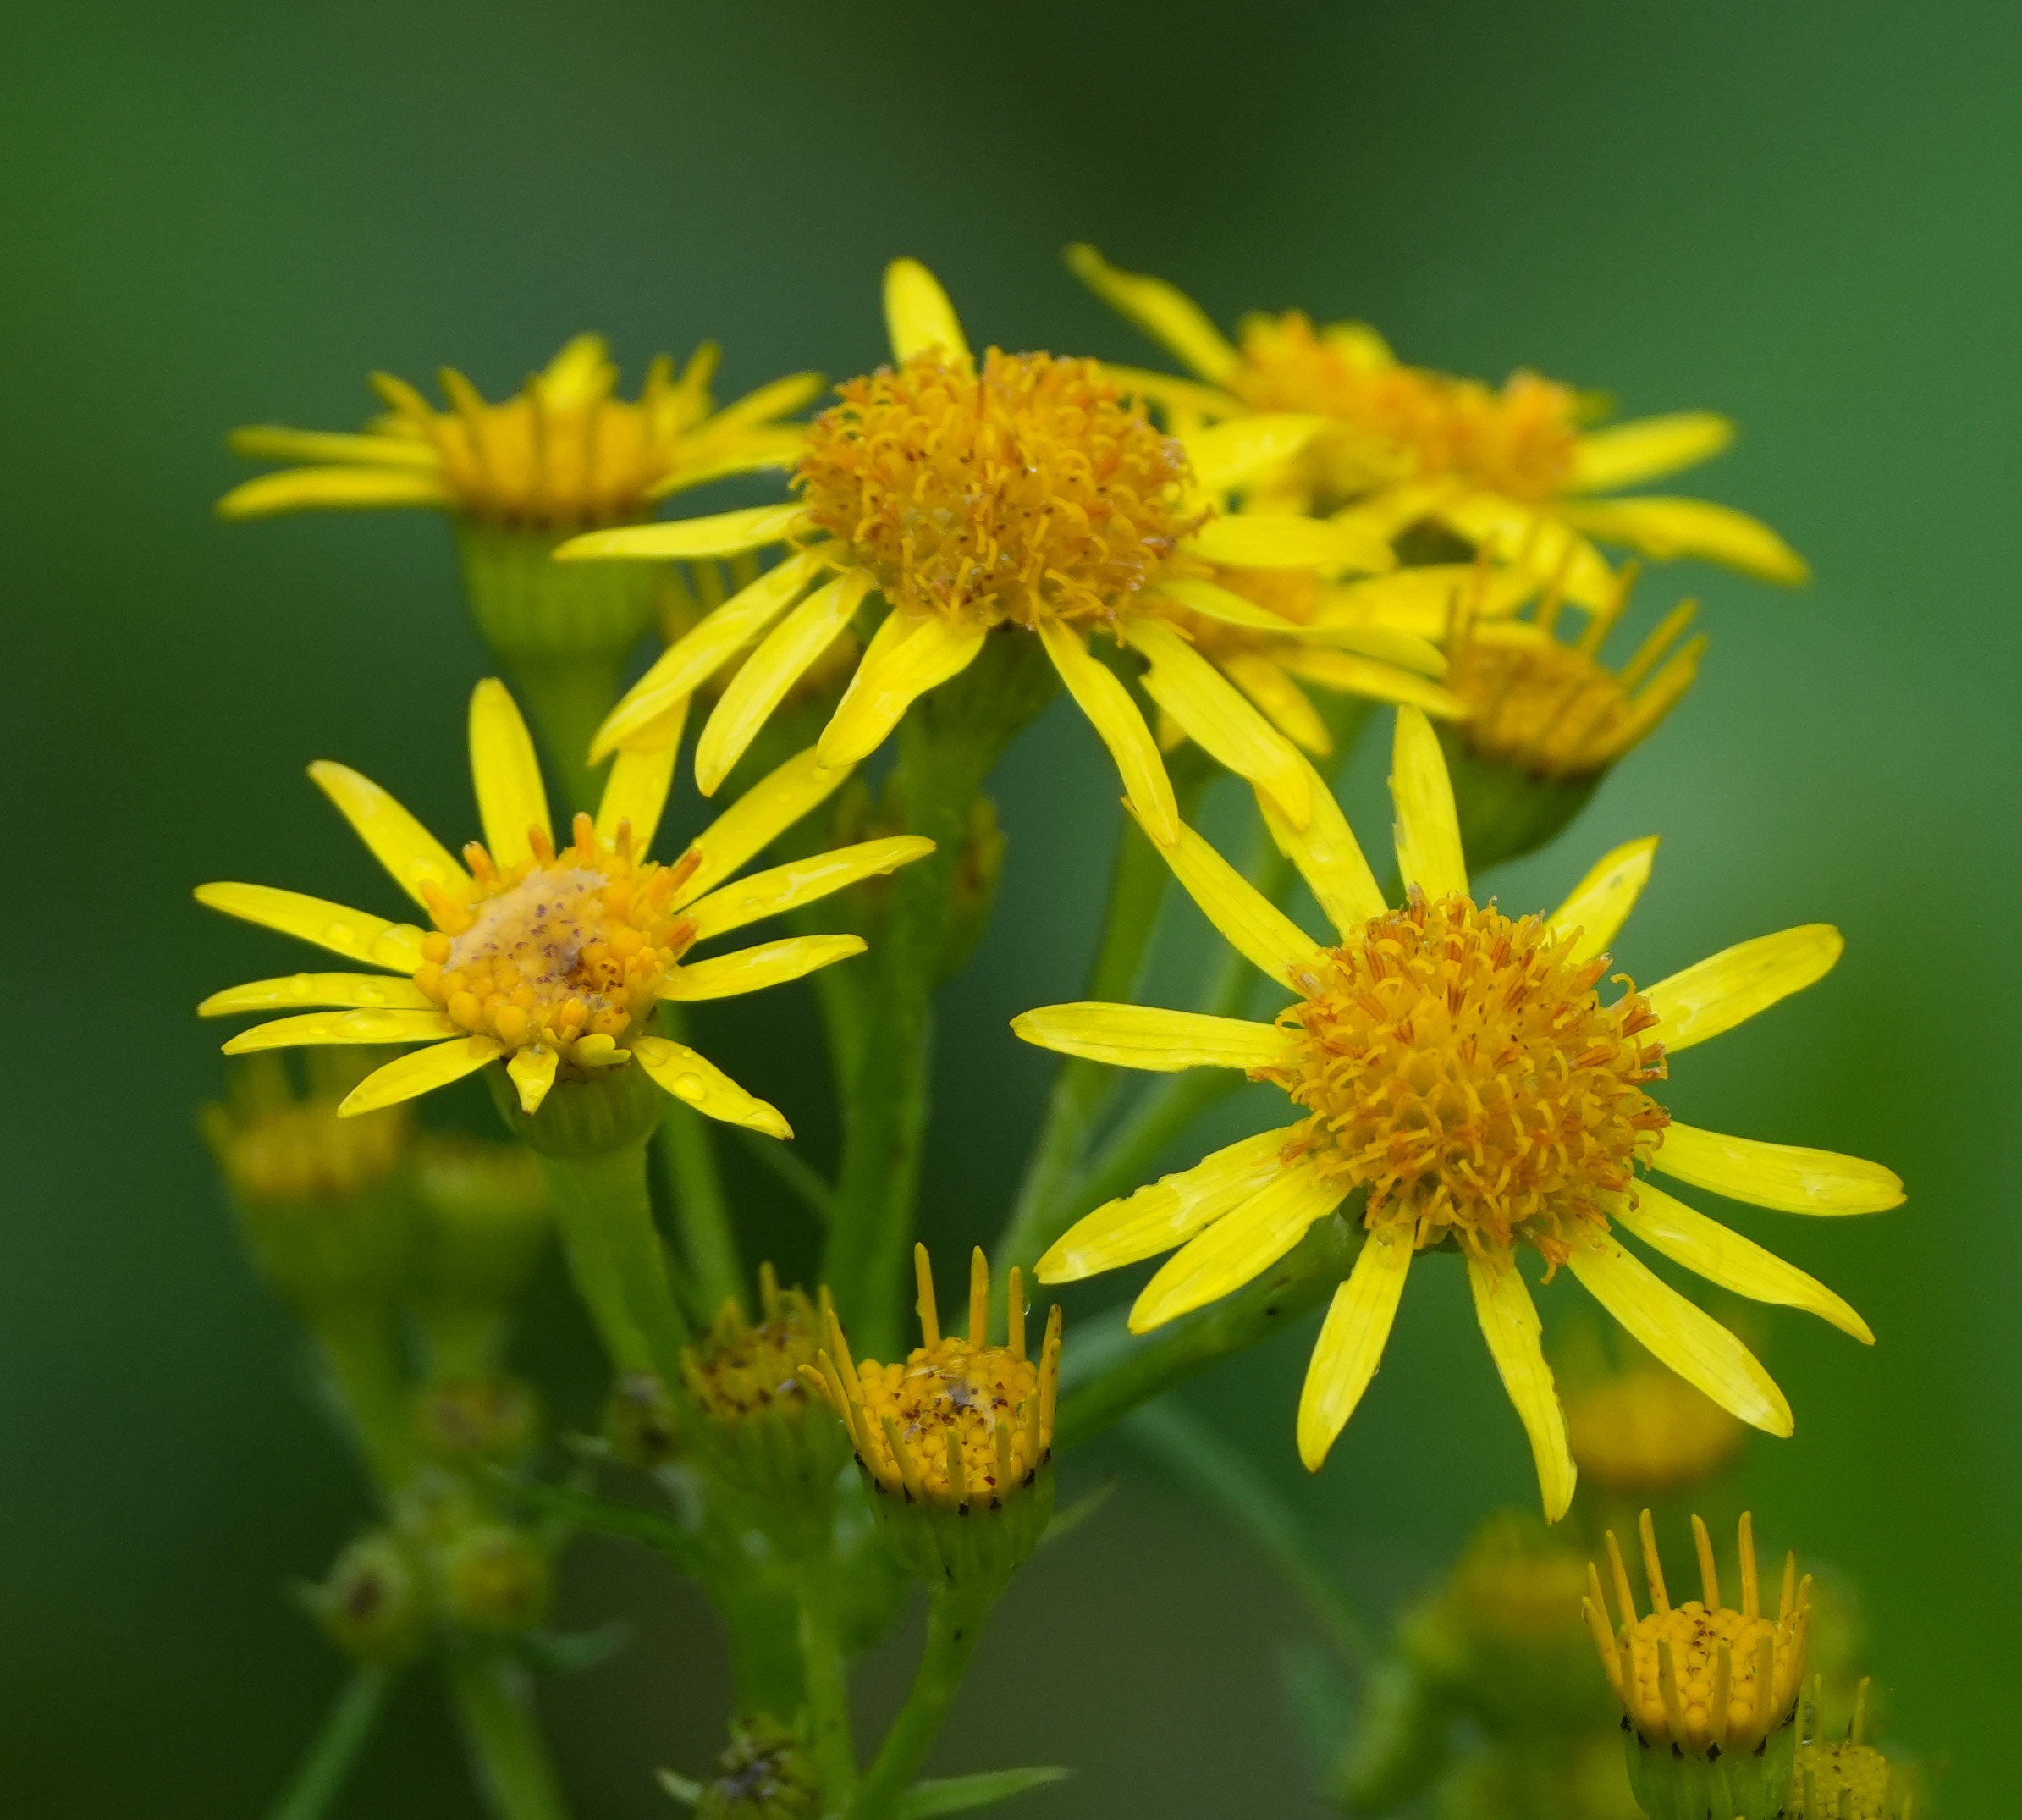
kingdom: Plantae
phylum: Tracheophyta
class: Magnoliopsida
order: Asterales
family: Asteraceae
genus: Jacobaea
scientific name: Jacobaea vulgaris
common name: Eng-brandbæger
